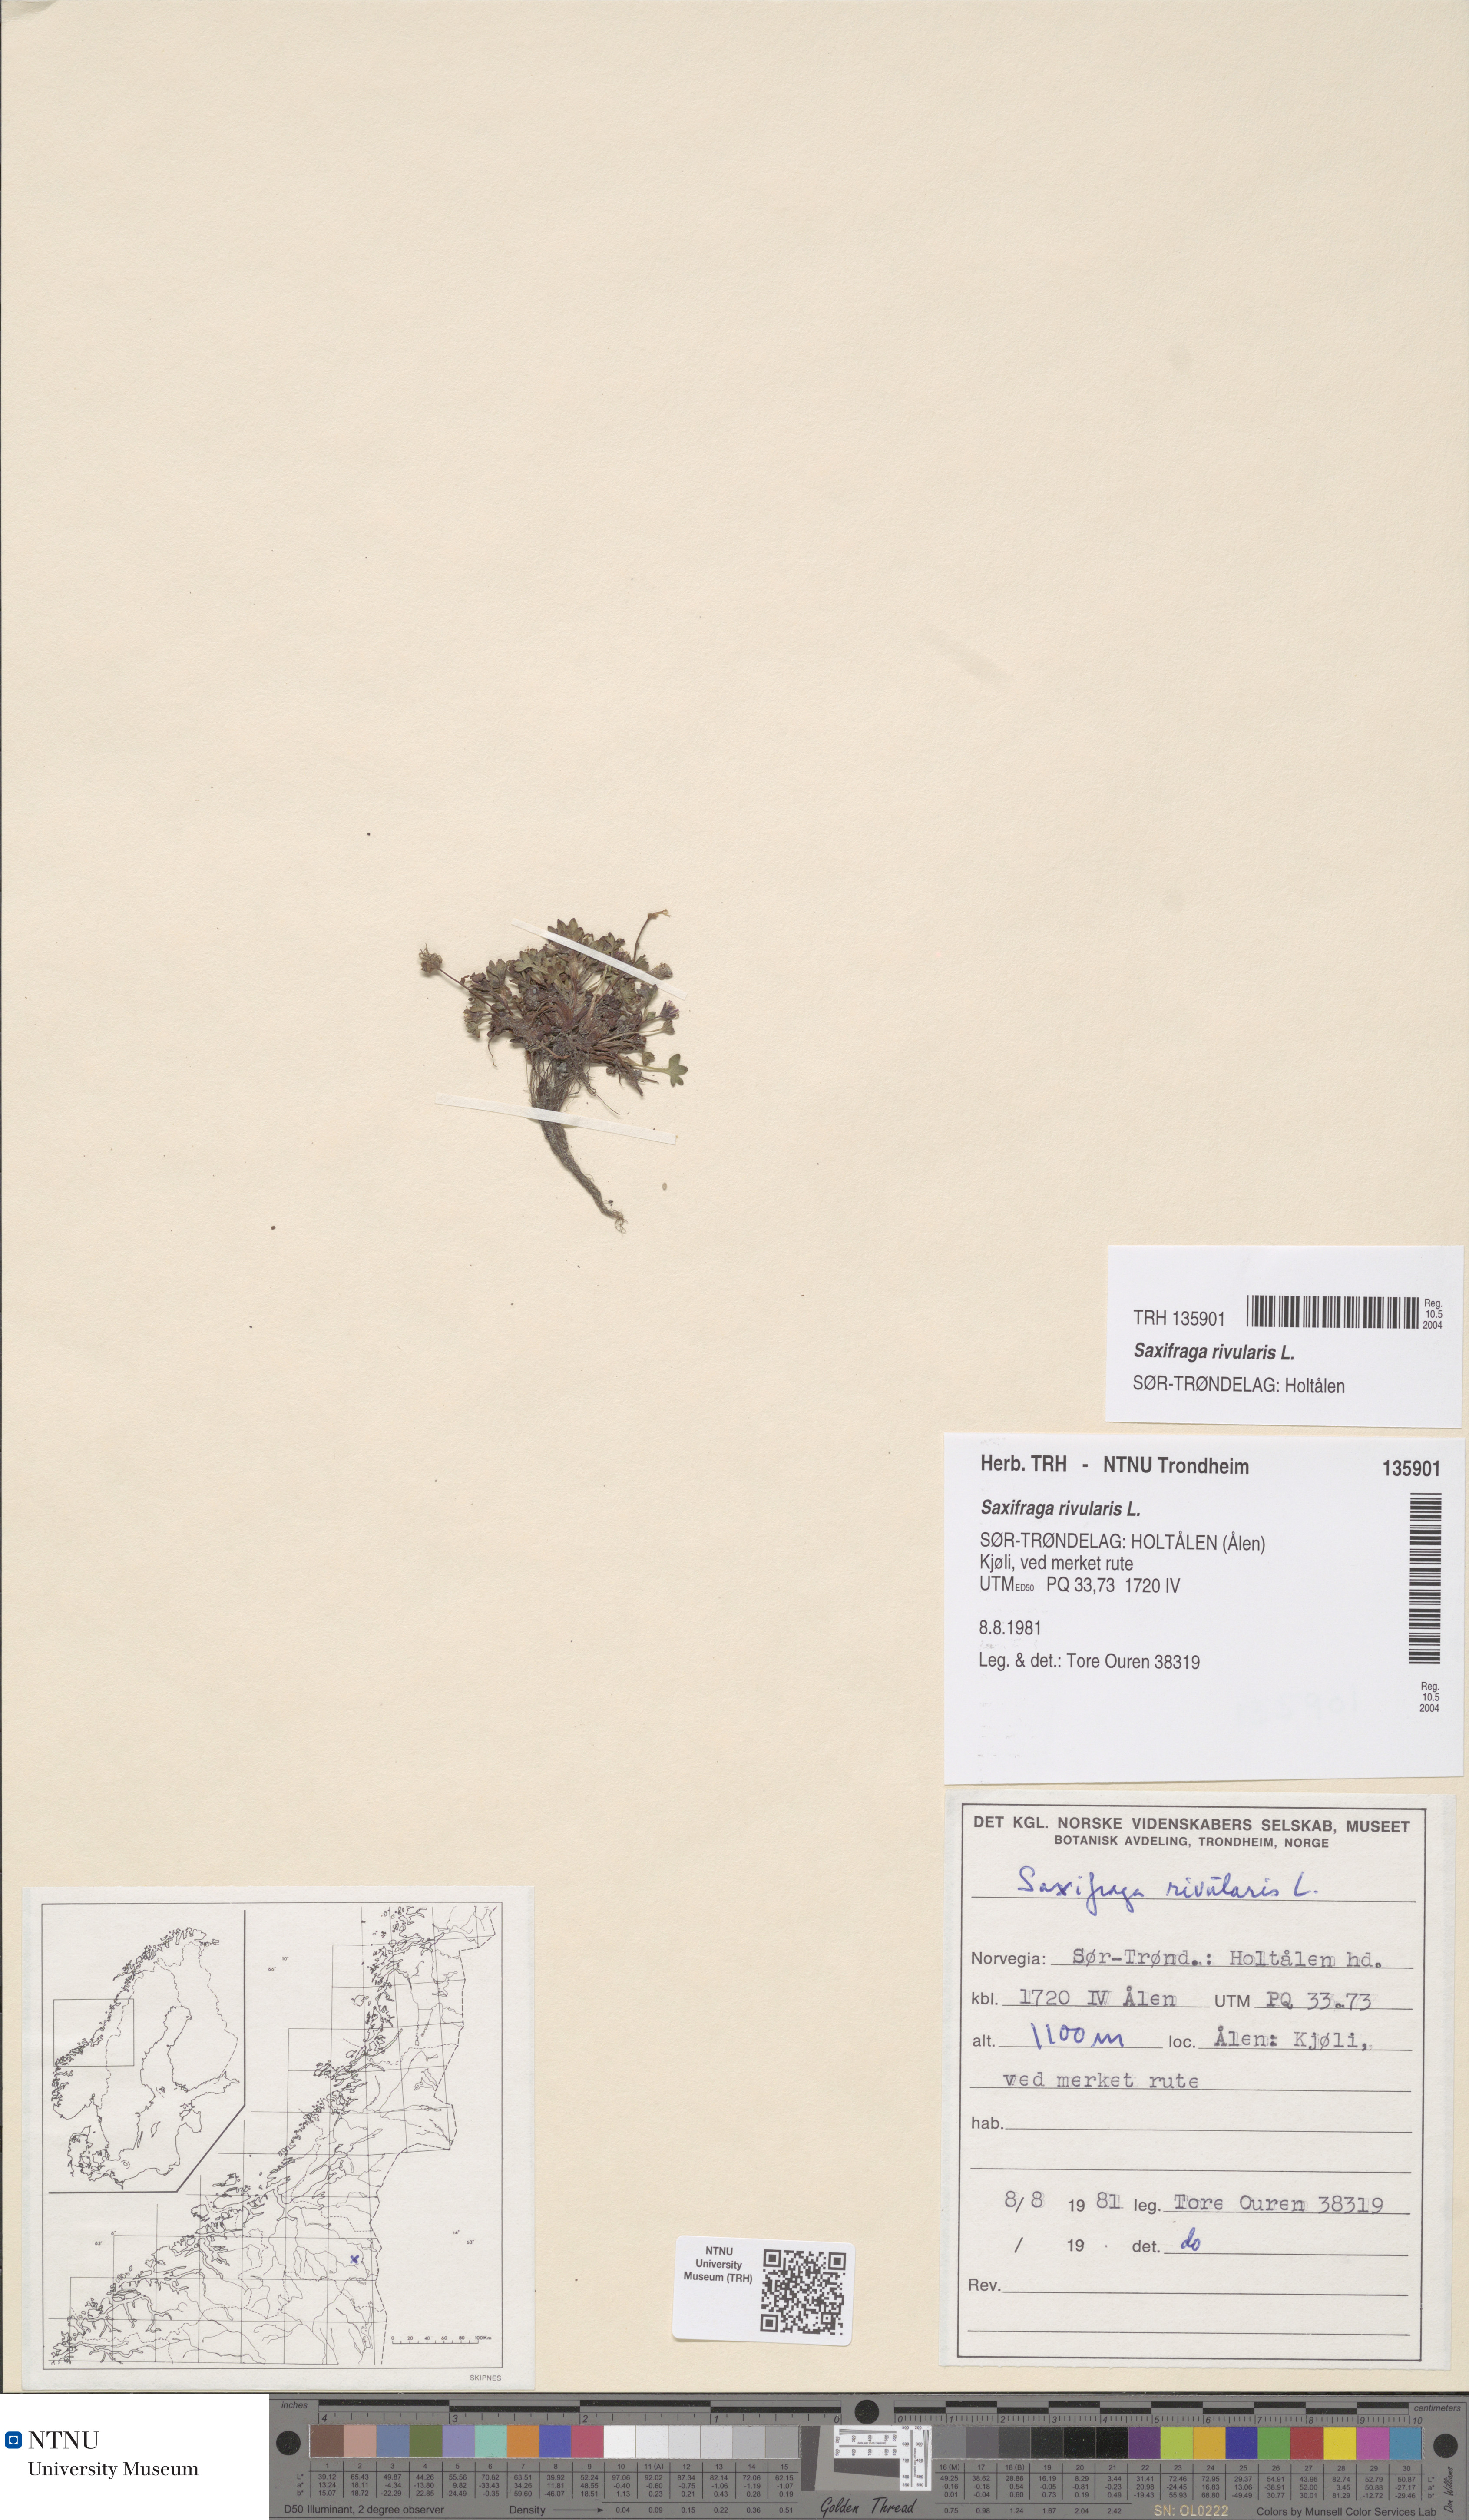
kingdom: Plantae
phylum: Tracheophyta
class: Magnoliopsida
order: Saxifragales
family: Saxifragaceae
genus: Saxifraga
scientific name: Saxifraga rivularis
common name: Highland saxifrage
